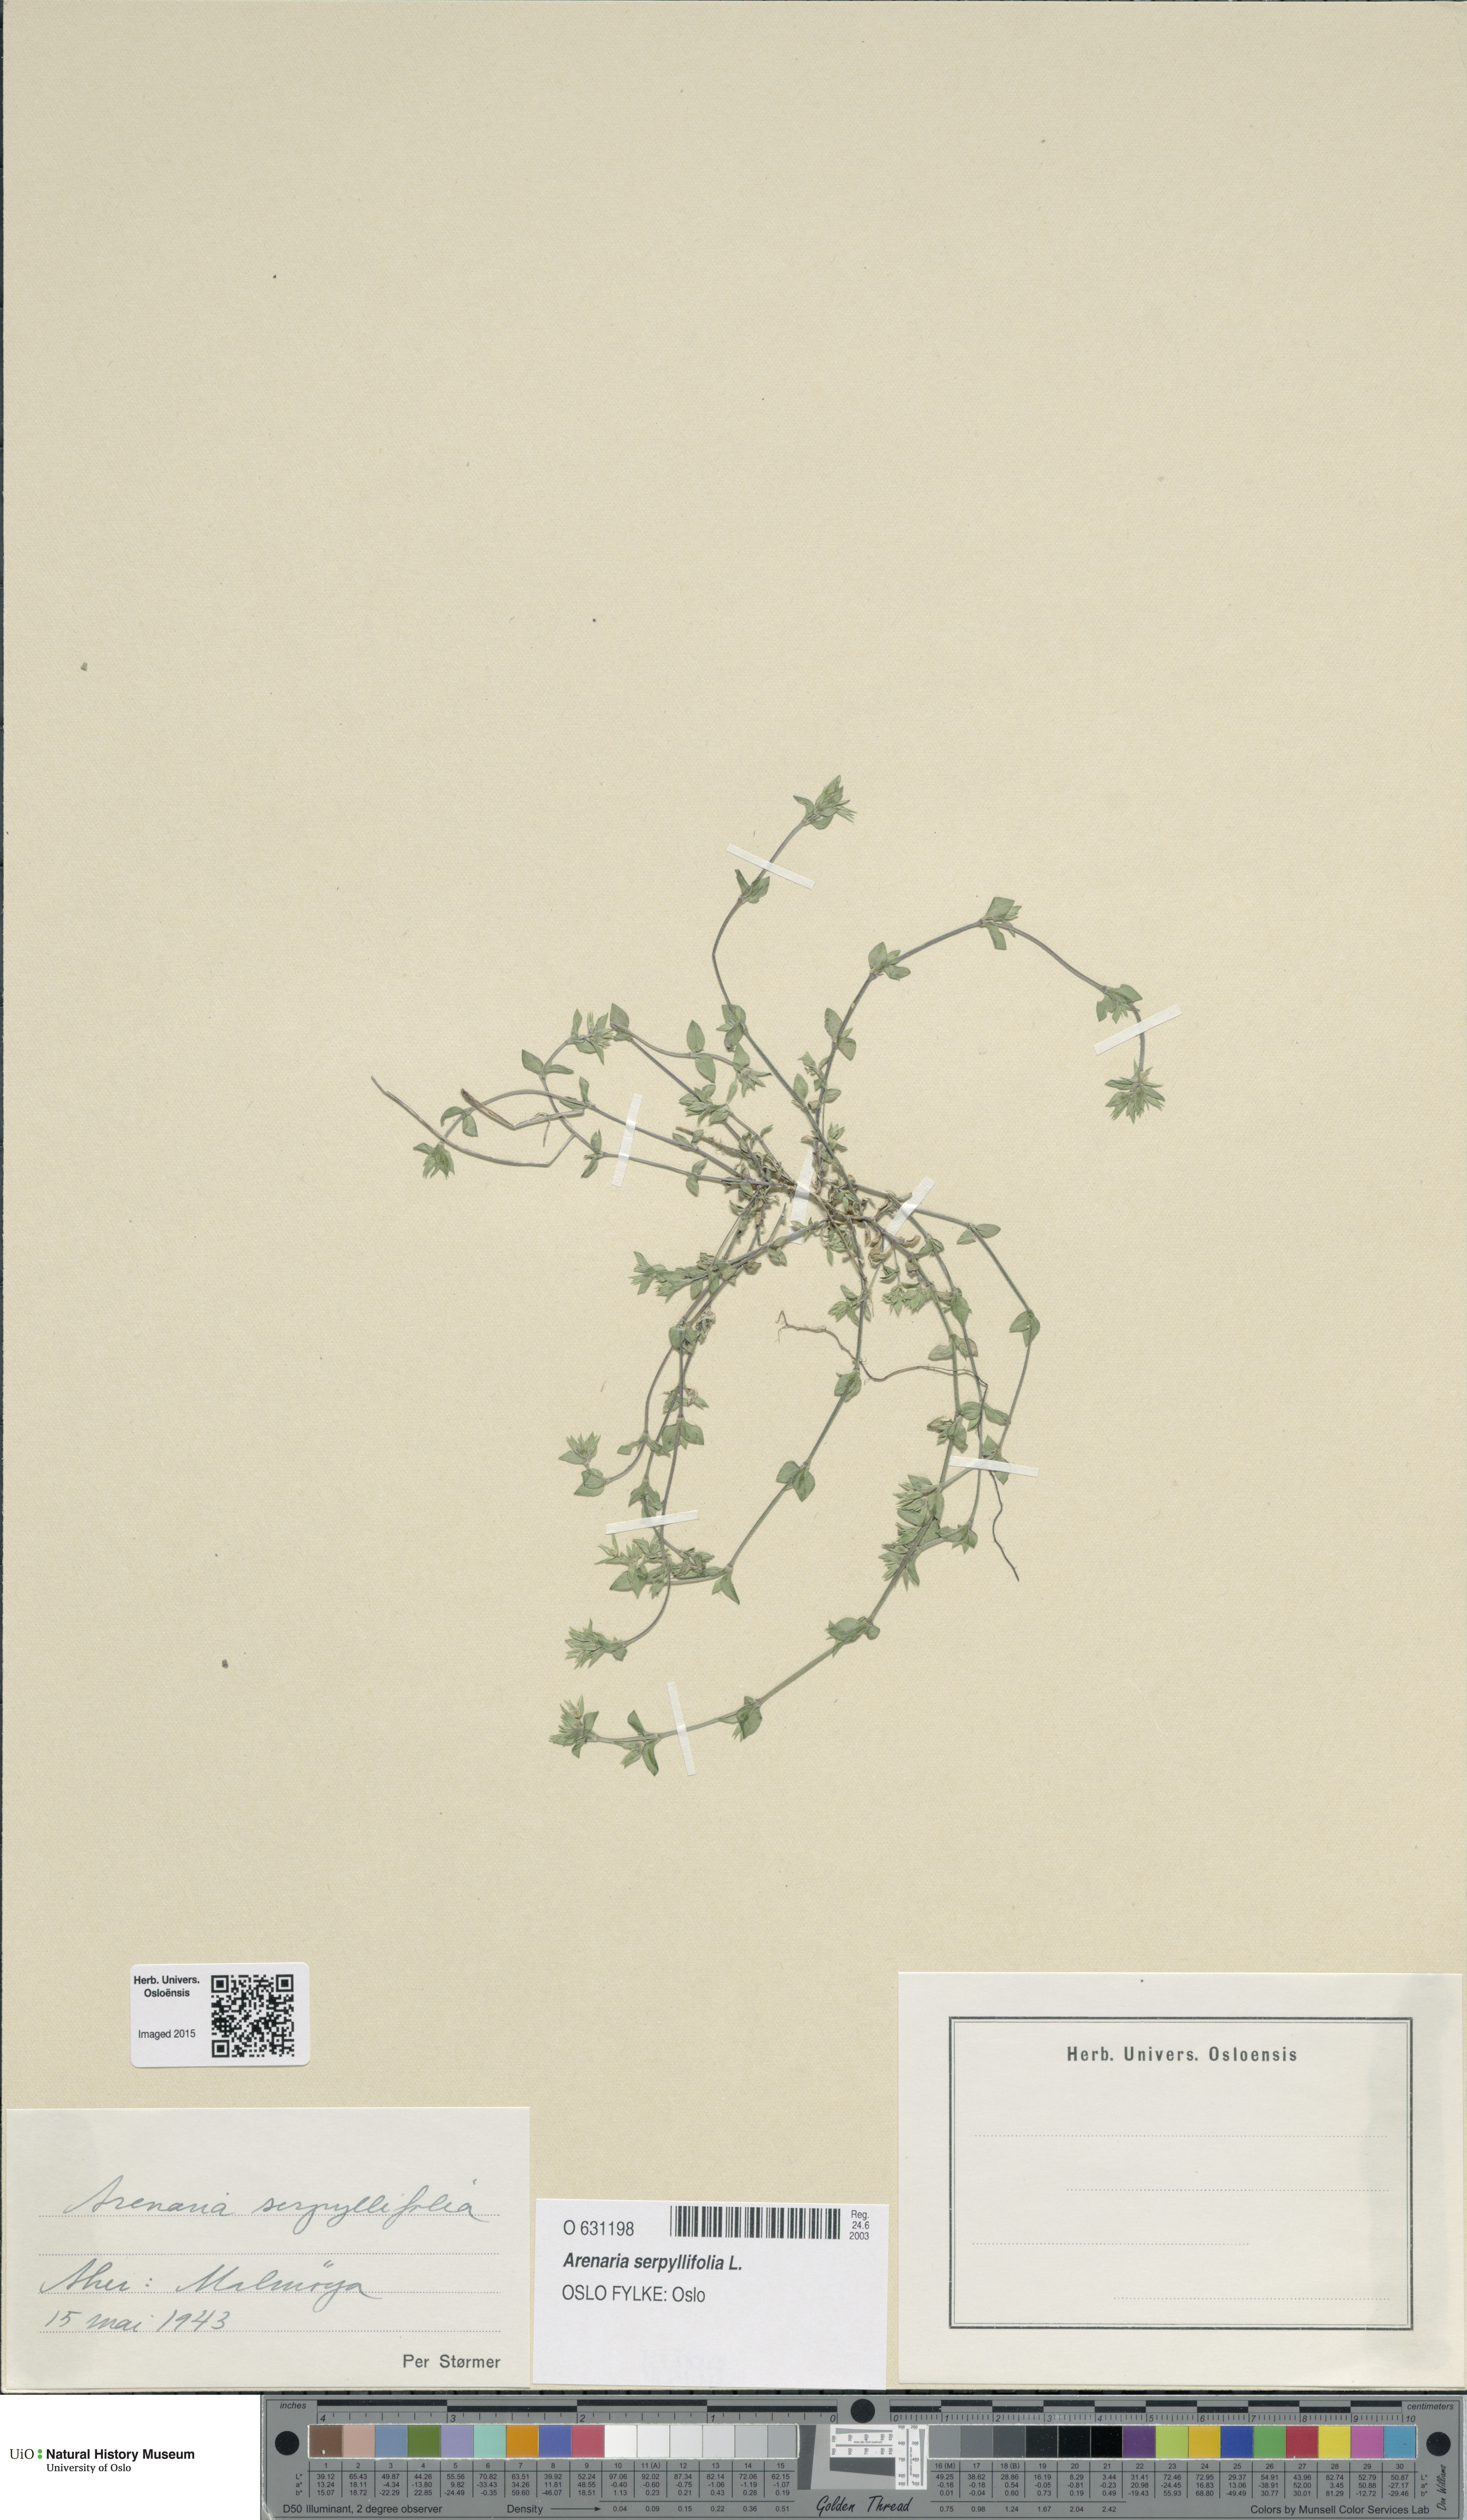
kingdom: Plantae
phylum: Tracheophyta
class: Magnoliopsida
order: Caryophyllales
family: Caryophyllaceae
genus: Arenaria
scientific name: Arenaria serpyllifolia
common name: Thyme-leaved sandwort
